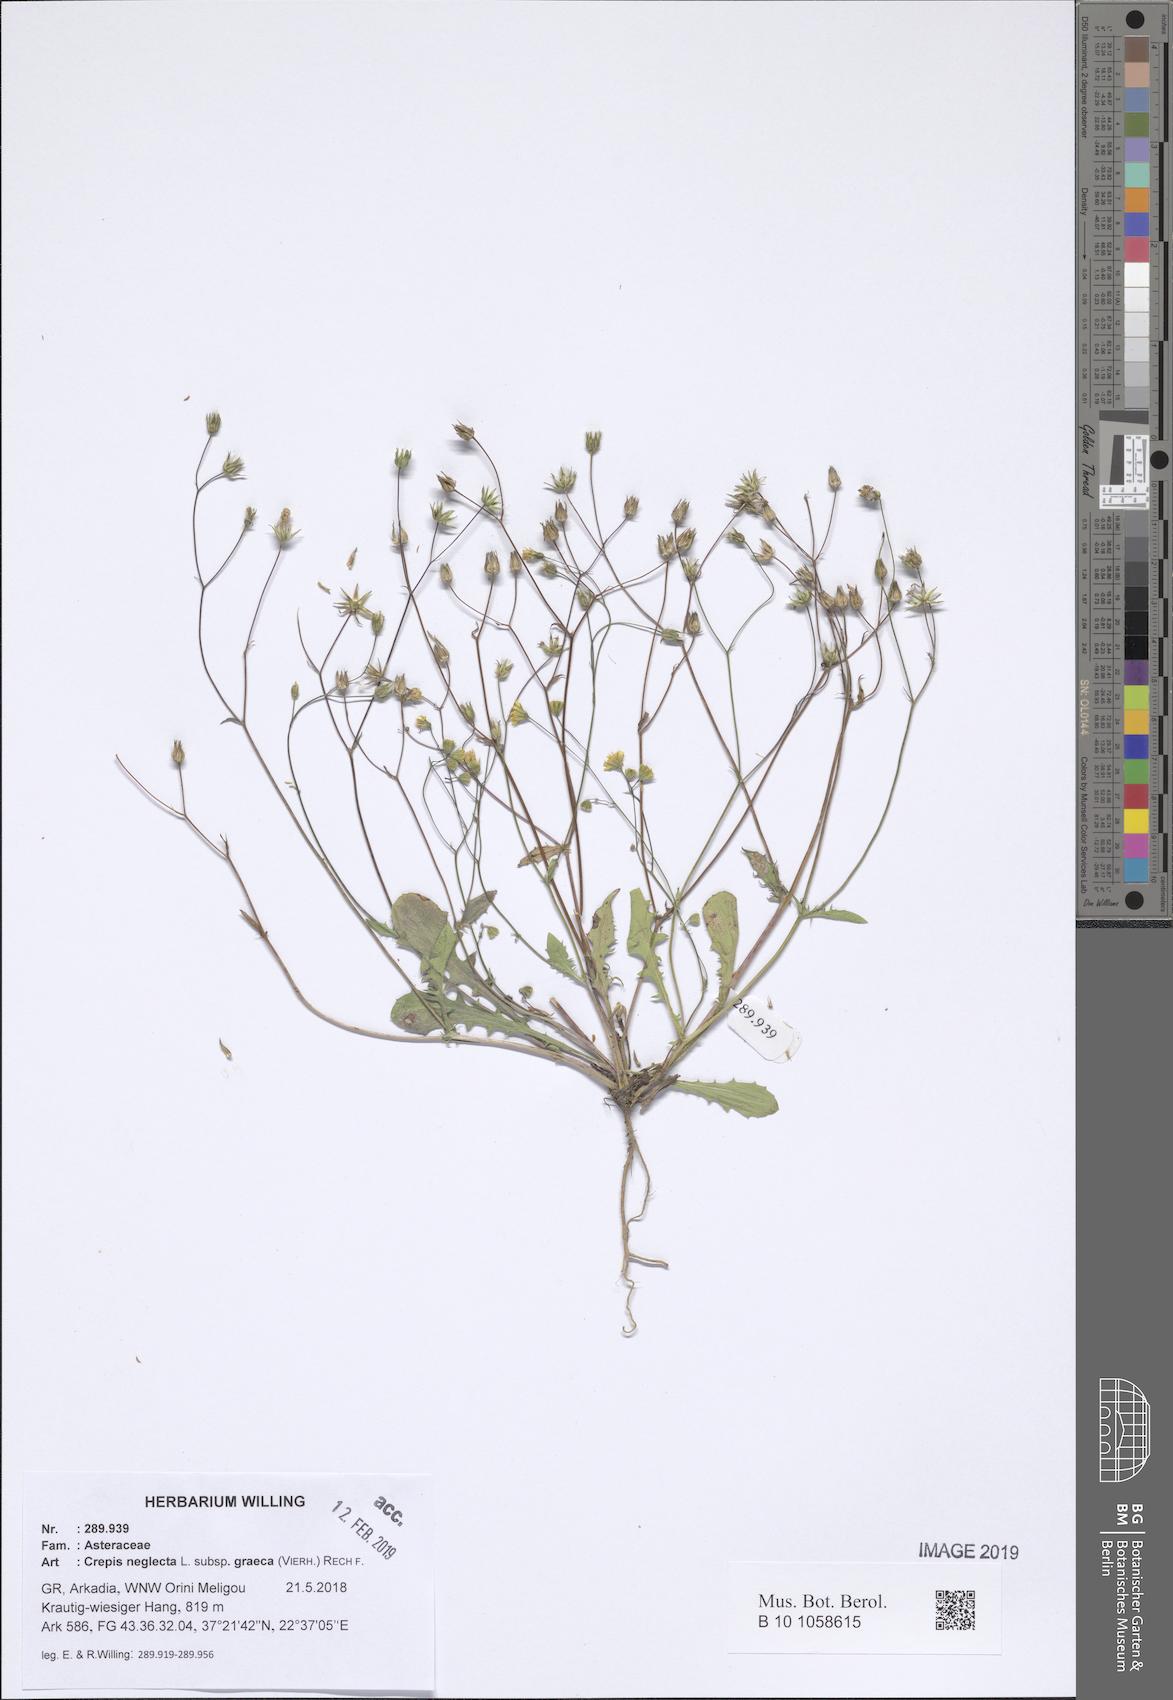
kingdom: Plantae
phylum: Tracheophyta
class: Magnoliopsida
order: Asterales
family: Asteraceae
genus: Crepis
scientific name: Crepis neglecta
